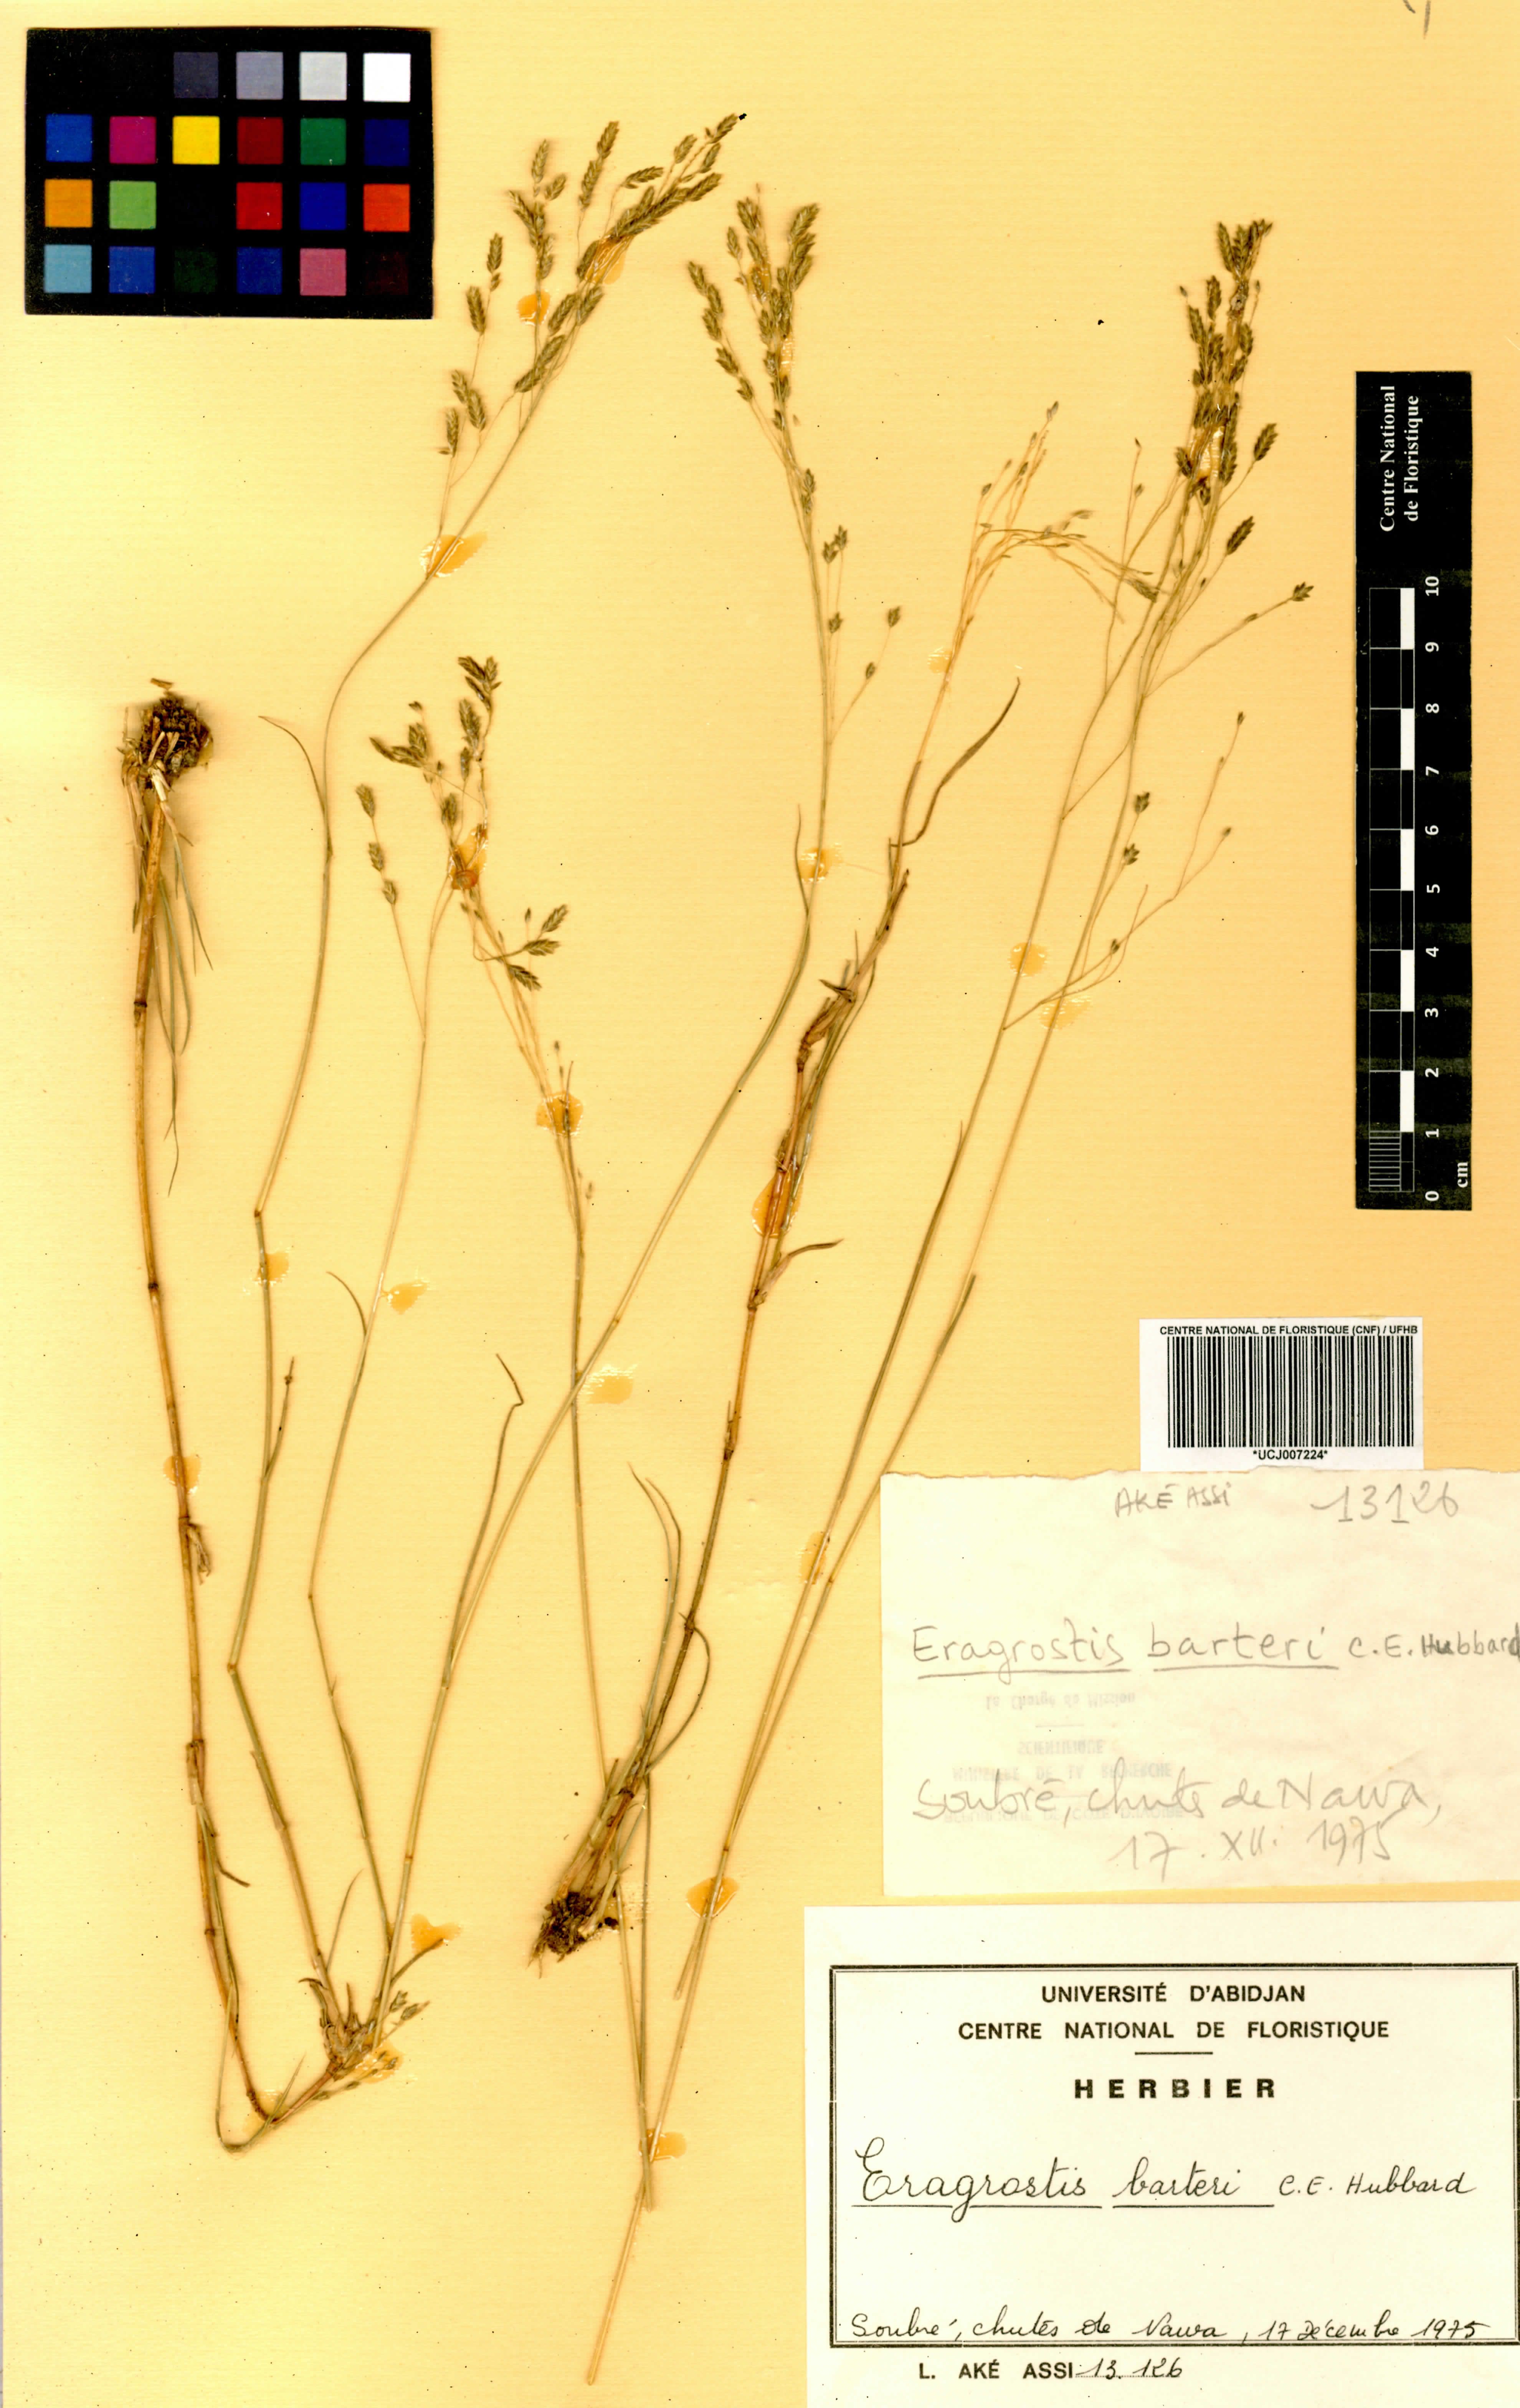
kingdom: Plantae
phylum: Tracheophyta
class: Liliopsida
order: Poales
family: Poaceae
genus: Eragrostis
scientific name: Eragrostis barteri
